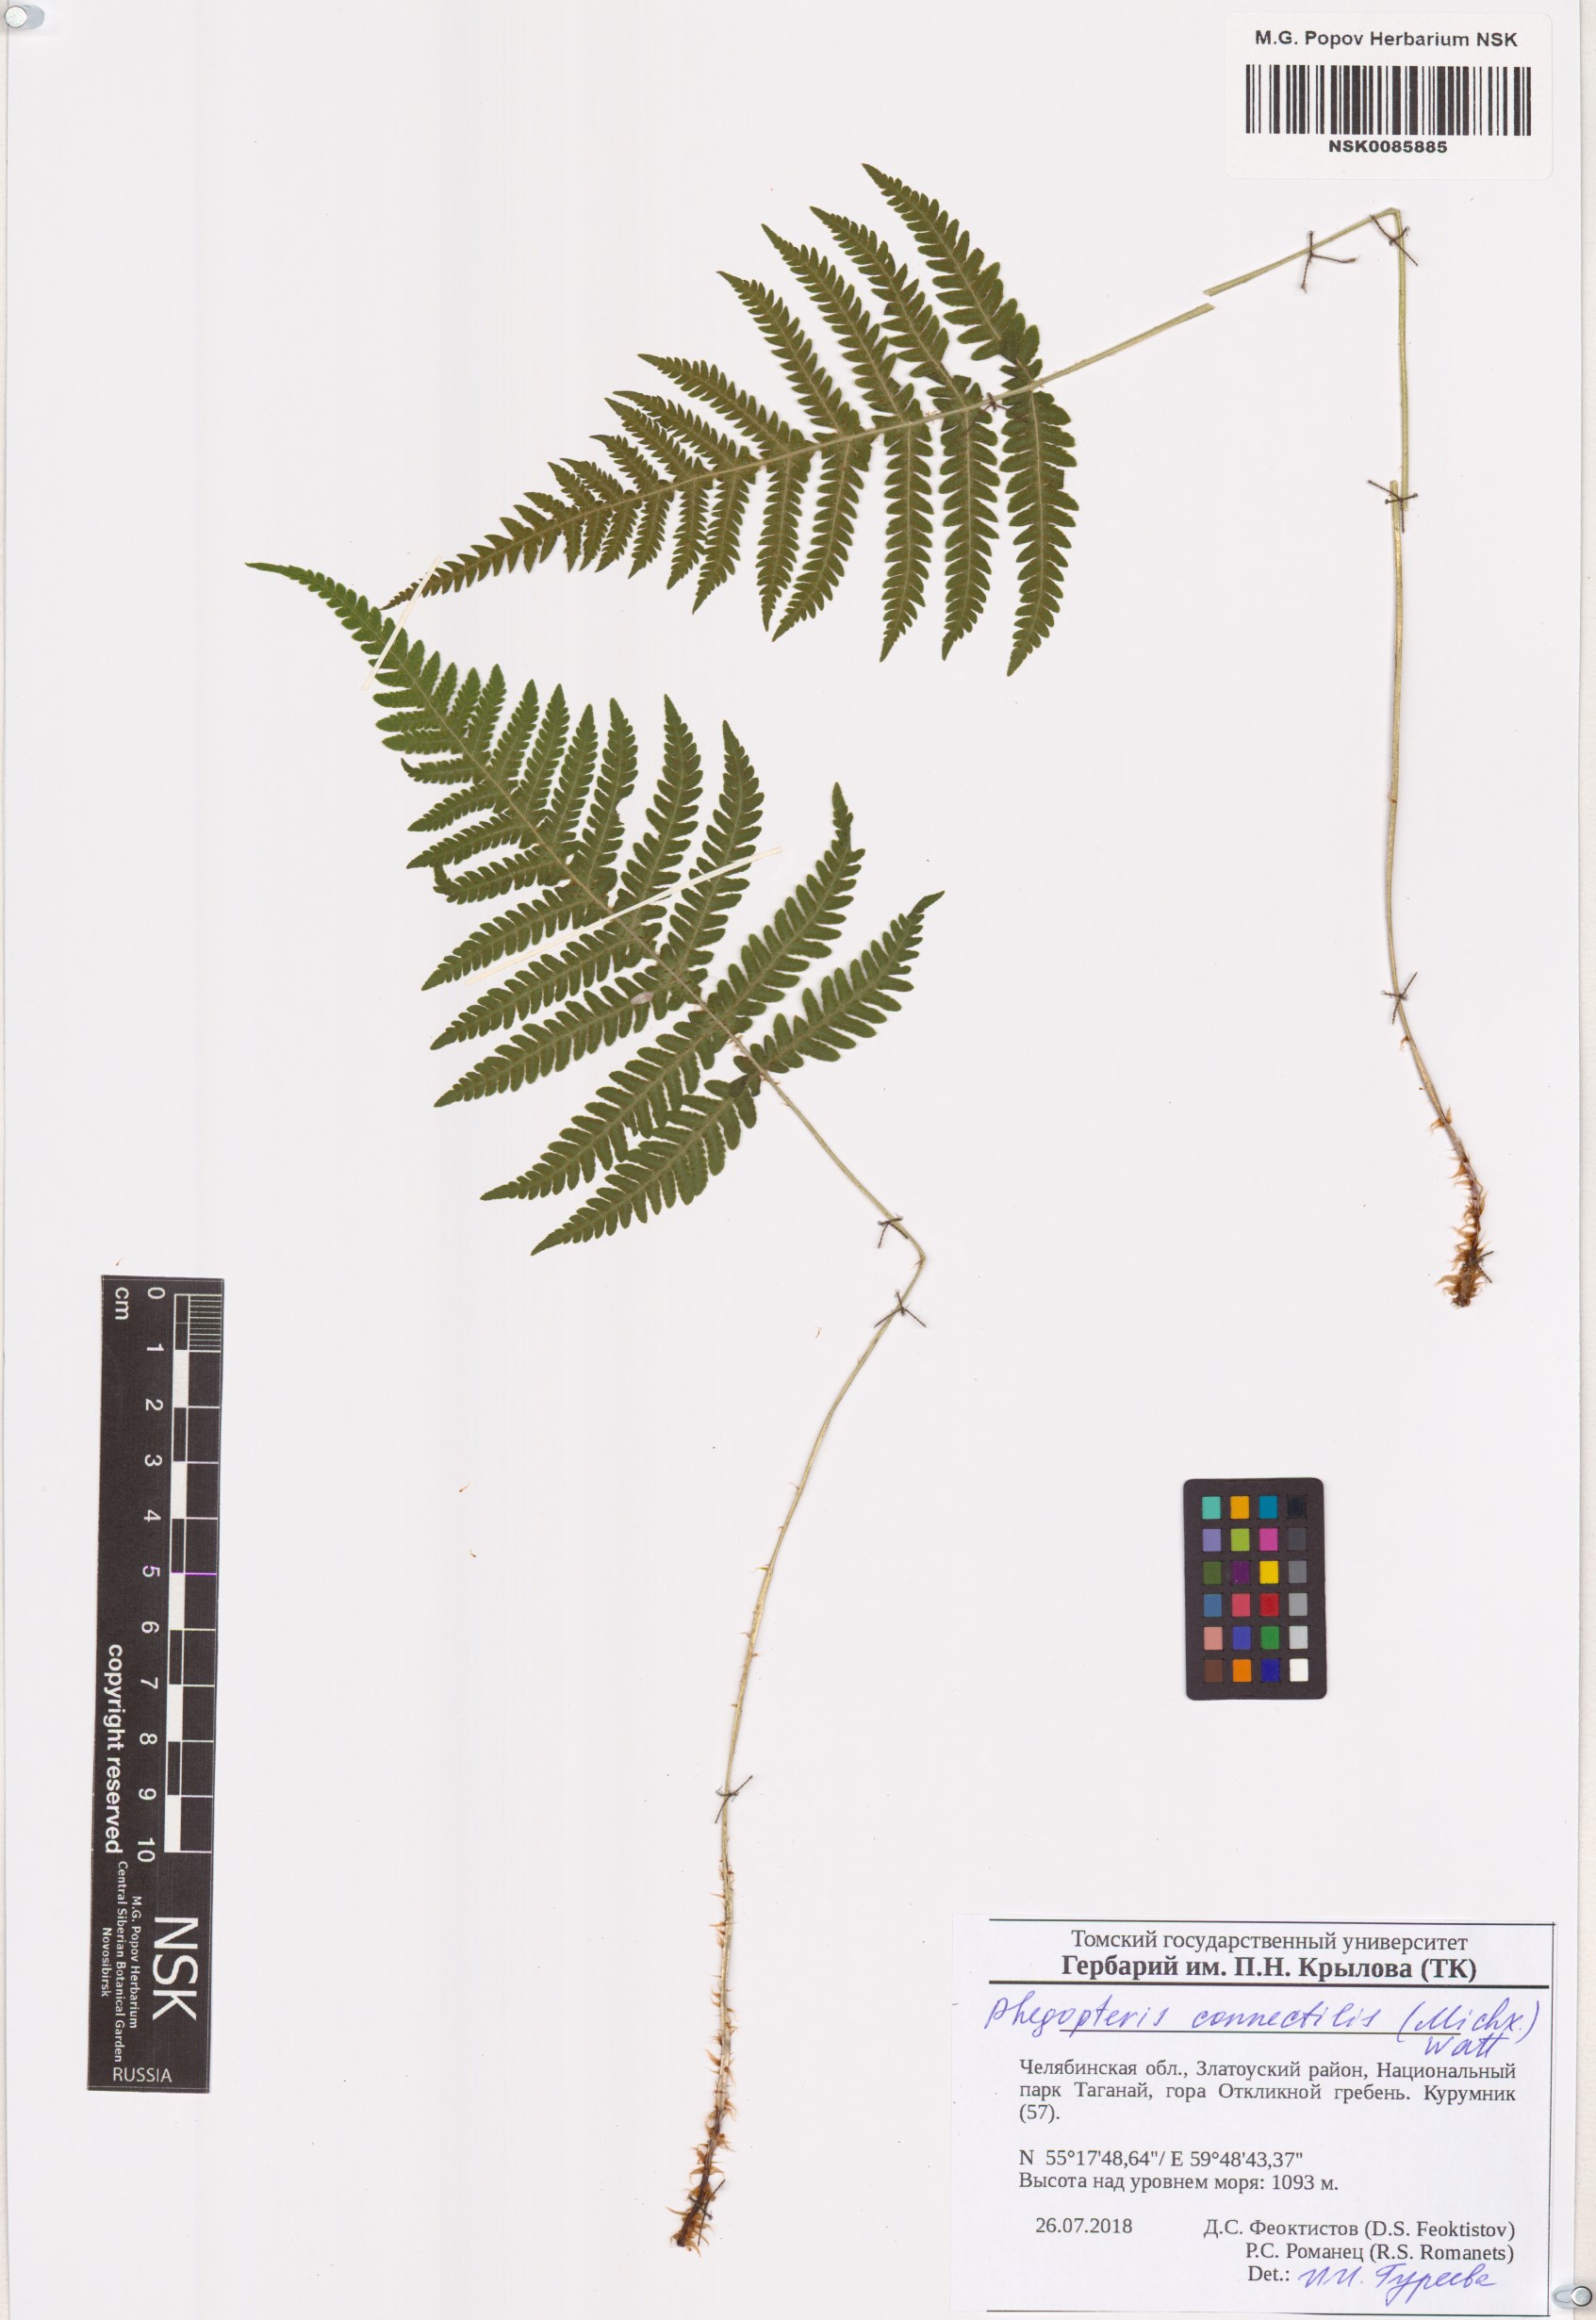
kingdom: Plantae
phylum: Tracheophyta
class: Polypodiopsida
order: Polypodiales
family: Thelypteridaceae
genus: Phegopteris
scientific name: Phegopteris connectilis
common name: Beech fern
